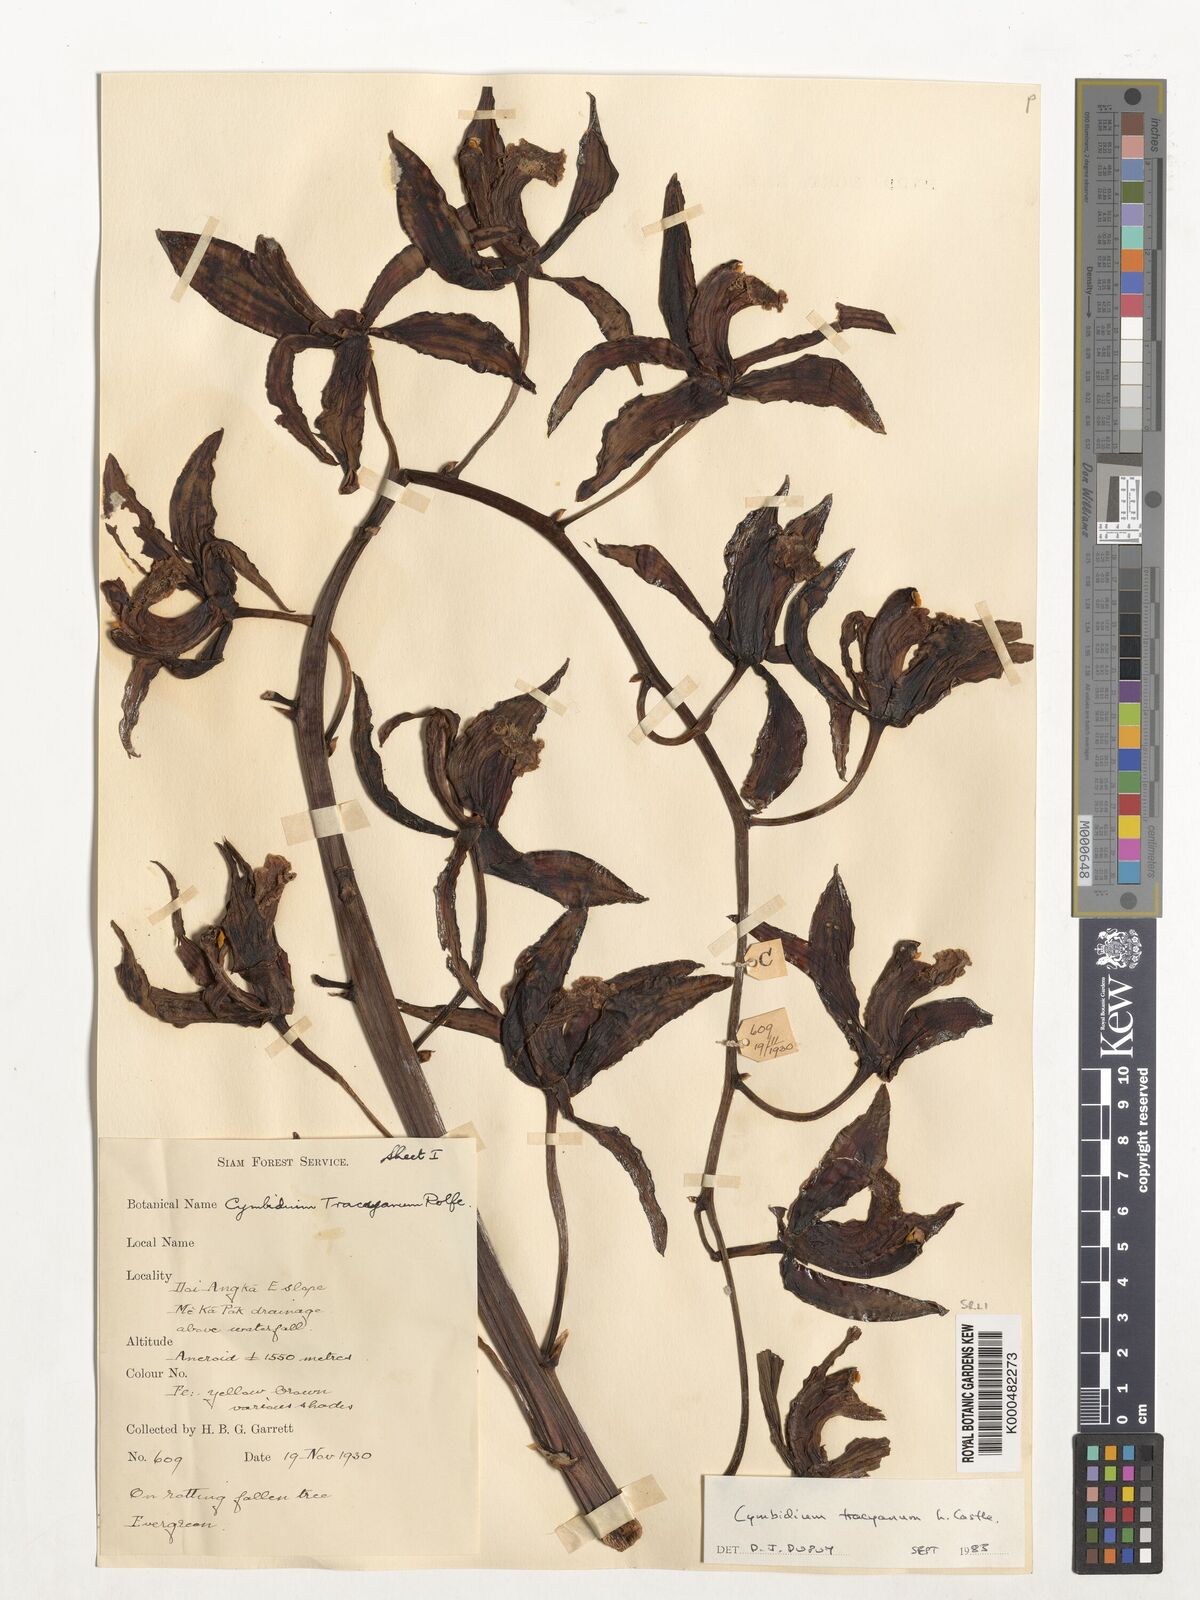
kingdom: Plantae
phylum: Tracheophyta
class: Liliopsida
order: Asparagales
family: Orchidaceae
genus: Cymbidium
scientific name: Cymbidium
